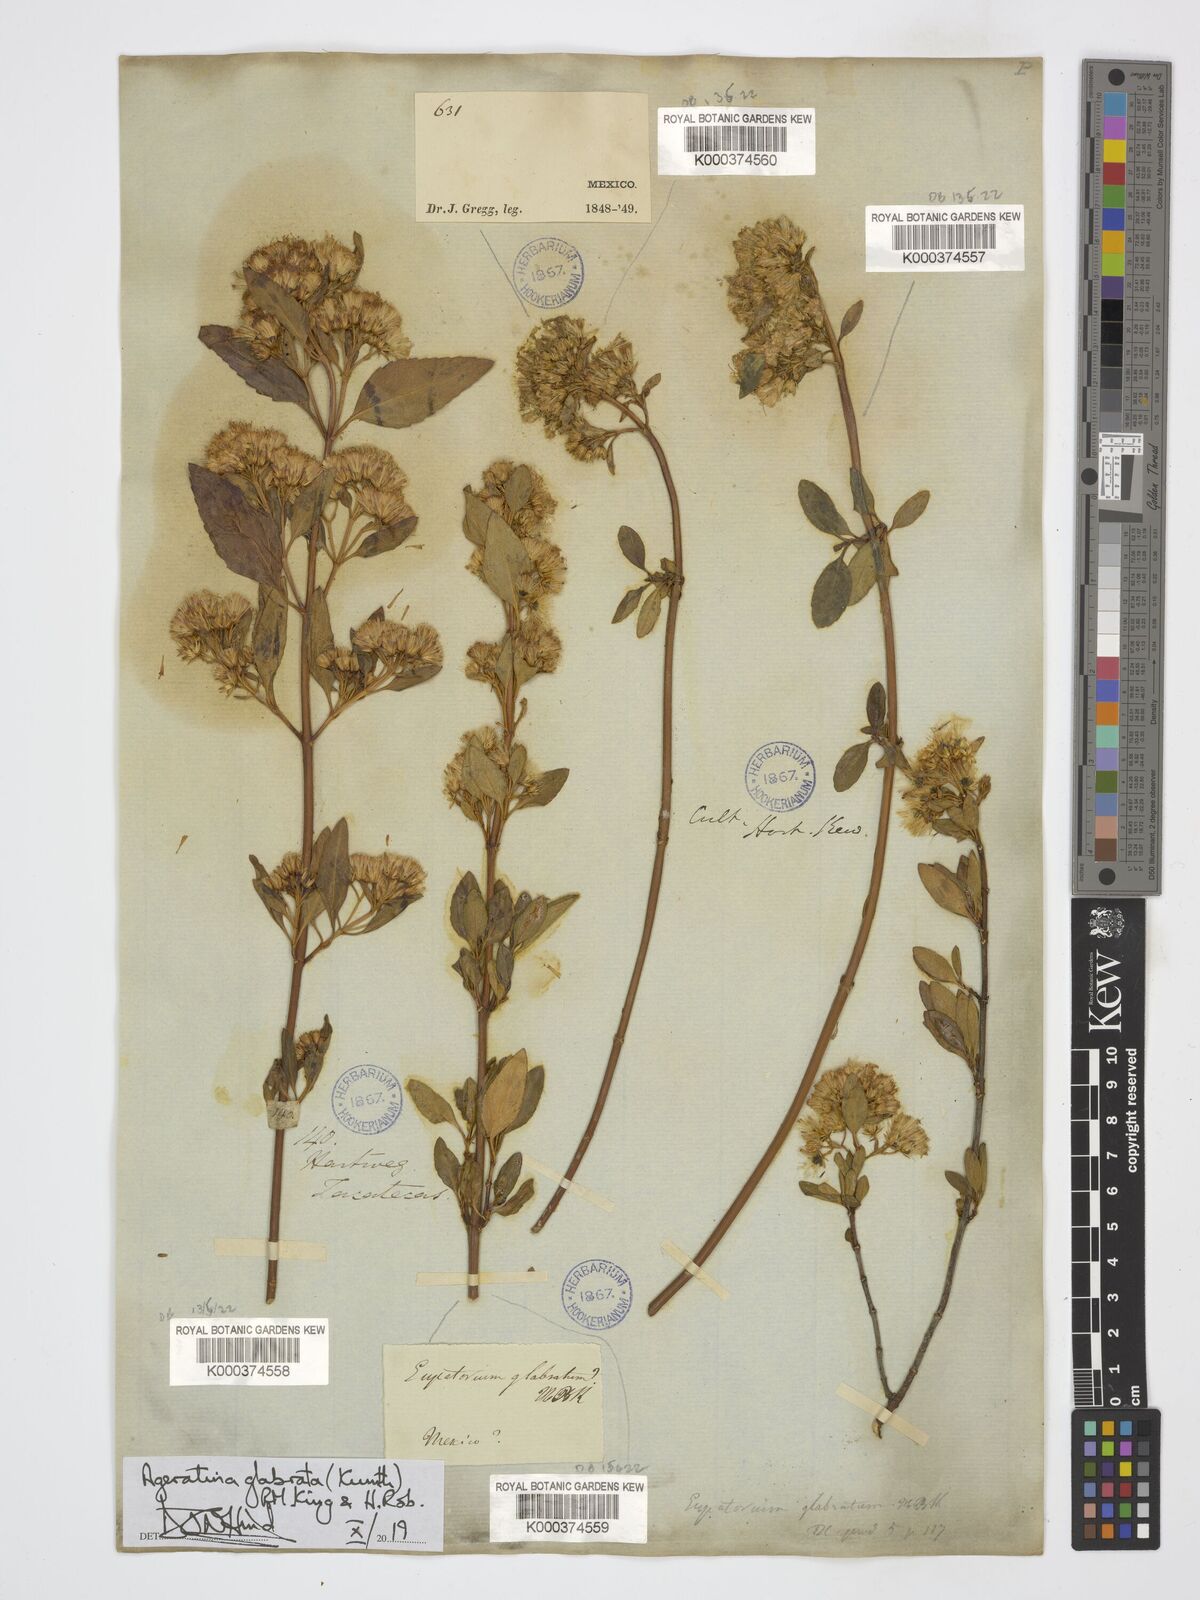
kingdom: Plantae
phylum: Tracheophyta
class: Magnoliopsida
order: Asterales
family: Asteraceae
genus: Ageratina
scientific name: Ageratina glabrata
